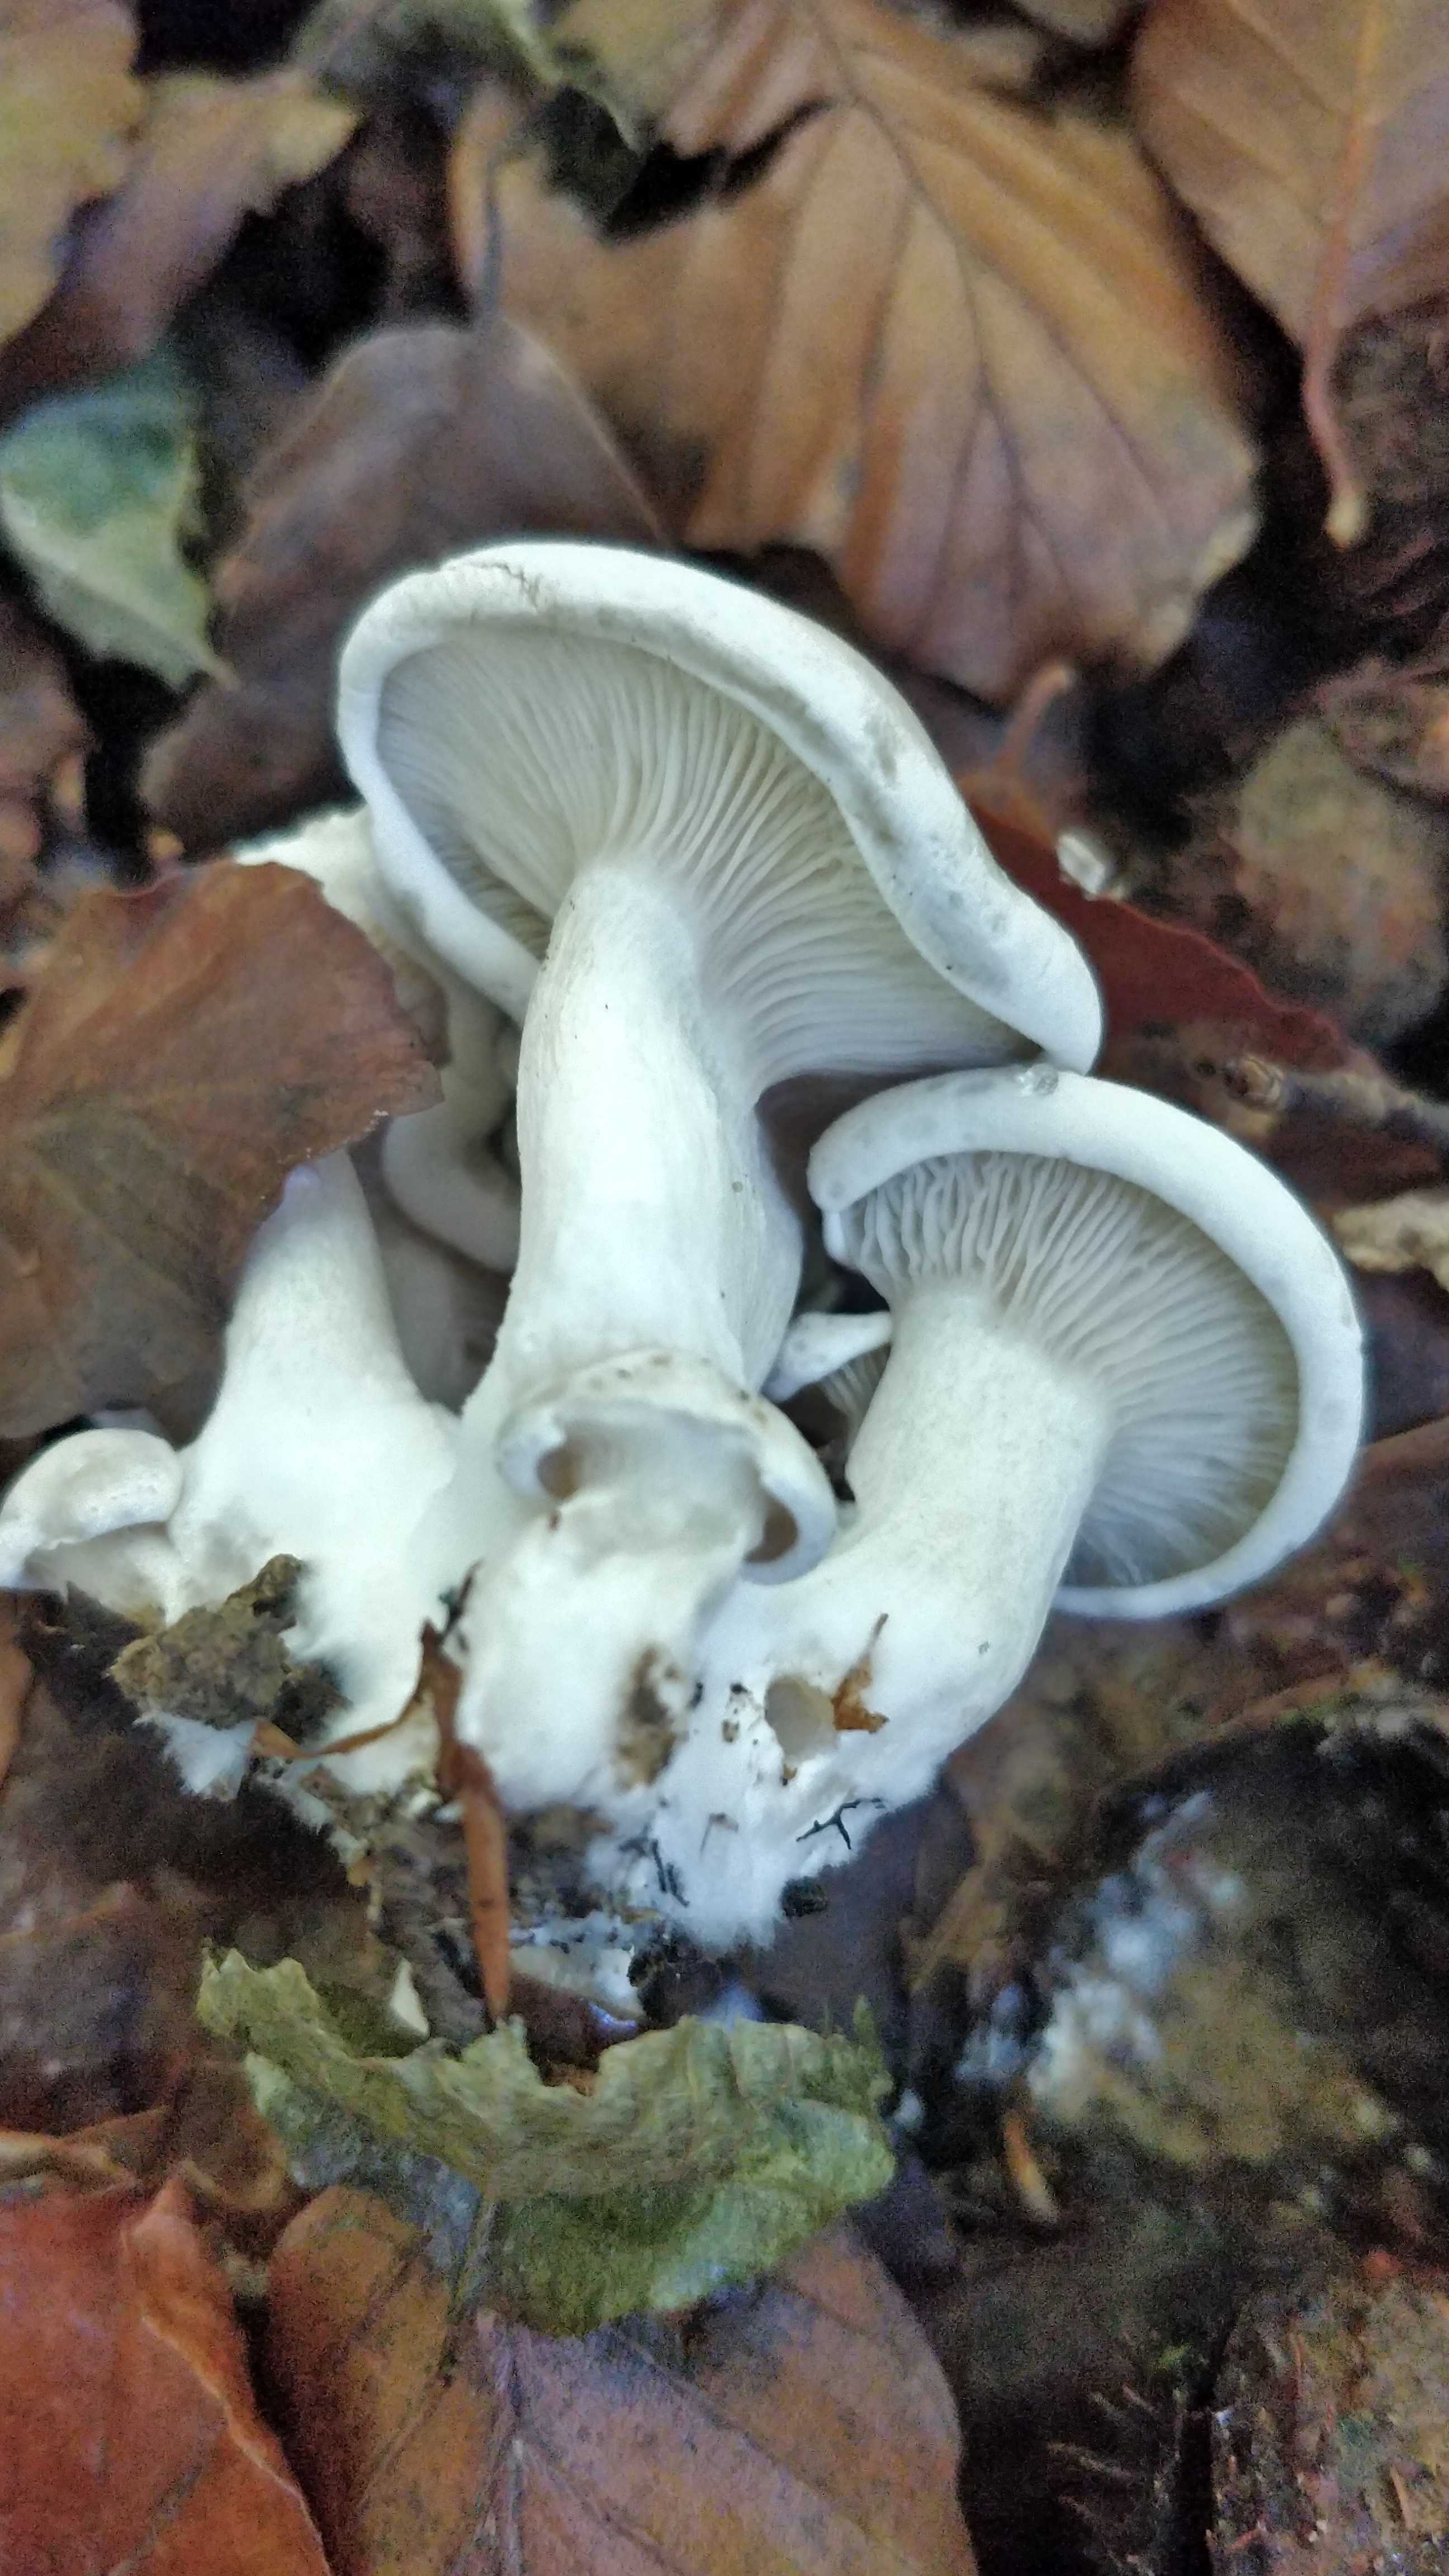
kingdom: Fungi
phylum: Basidiomycota
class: Agaricomycetes
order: Agaricales
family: Tricholomataceae
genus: Leucocybe
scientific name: Leucocybe connata
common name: knippe-tragthat
